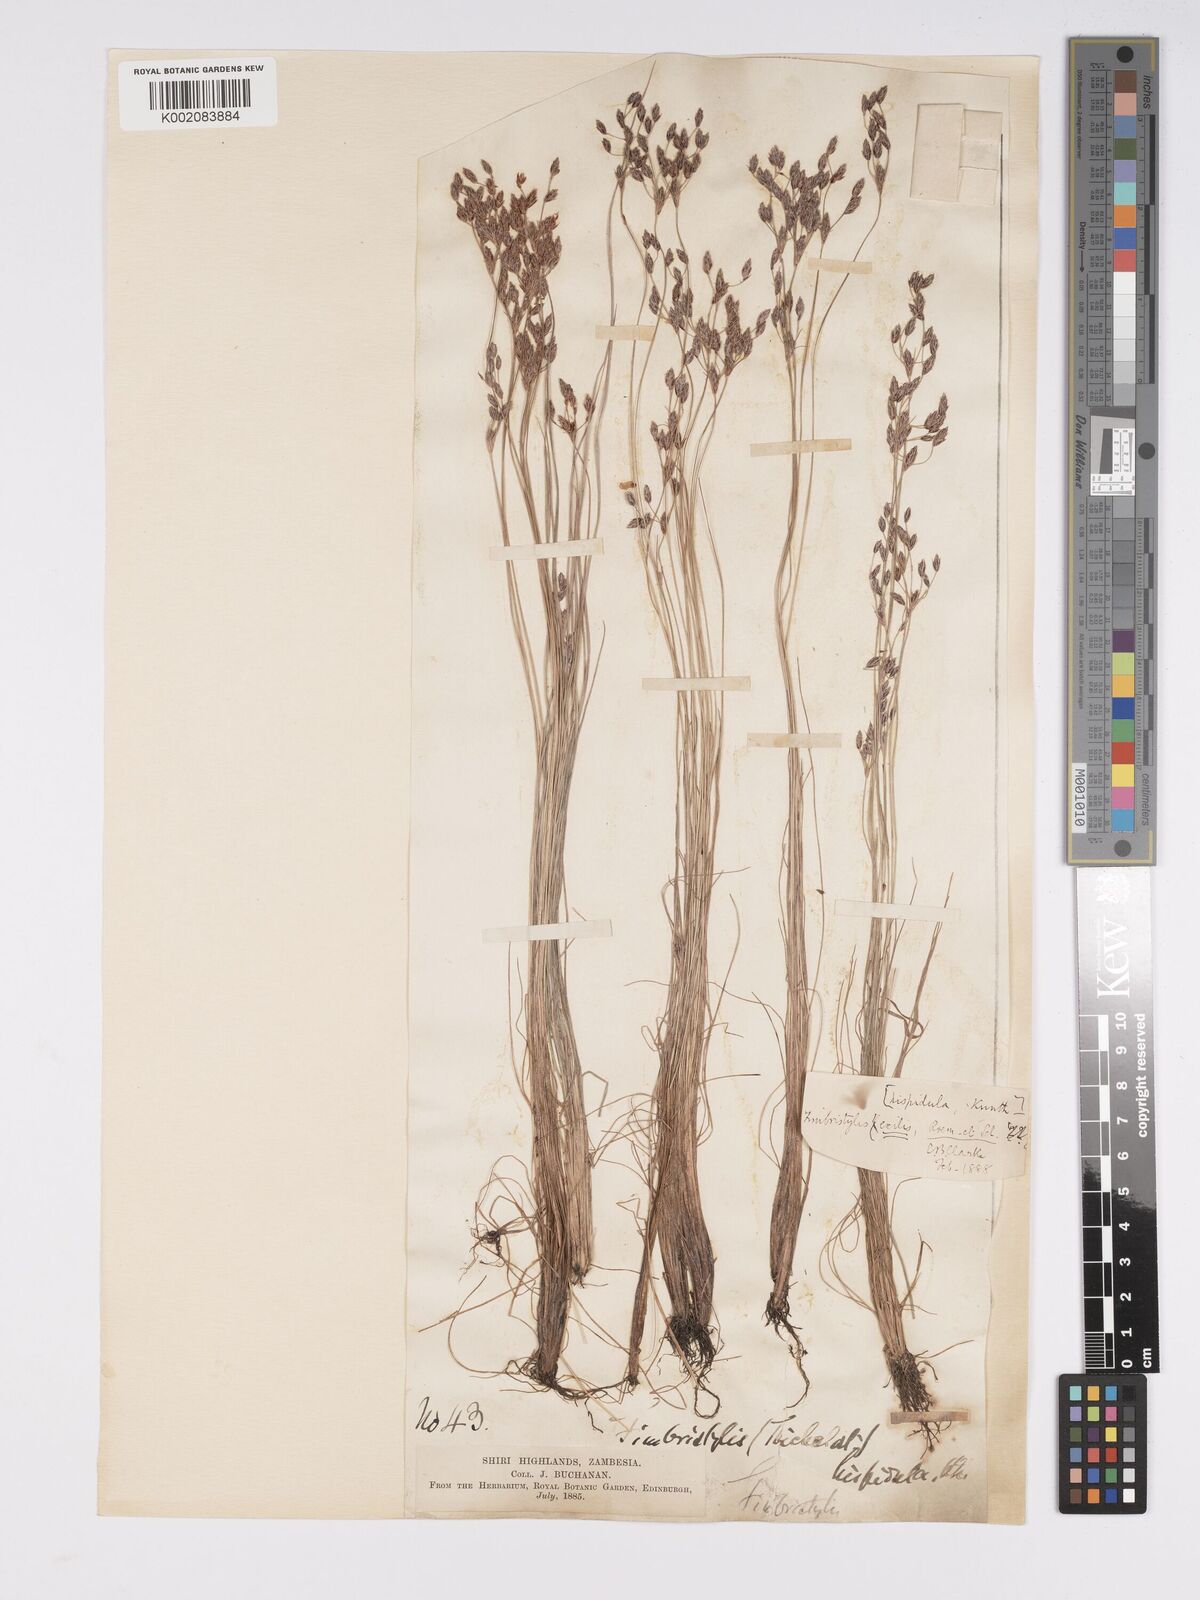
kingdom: Plantae
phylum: Tracheophyta
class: Liliopsida
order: Poales
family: Cyperaceae
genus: Bulbostylis
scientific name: Bulbostylis hispidula
